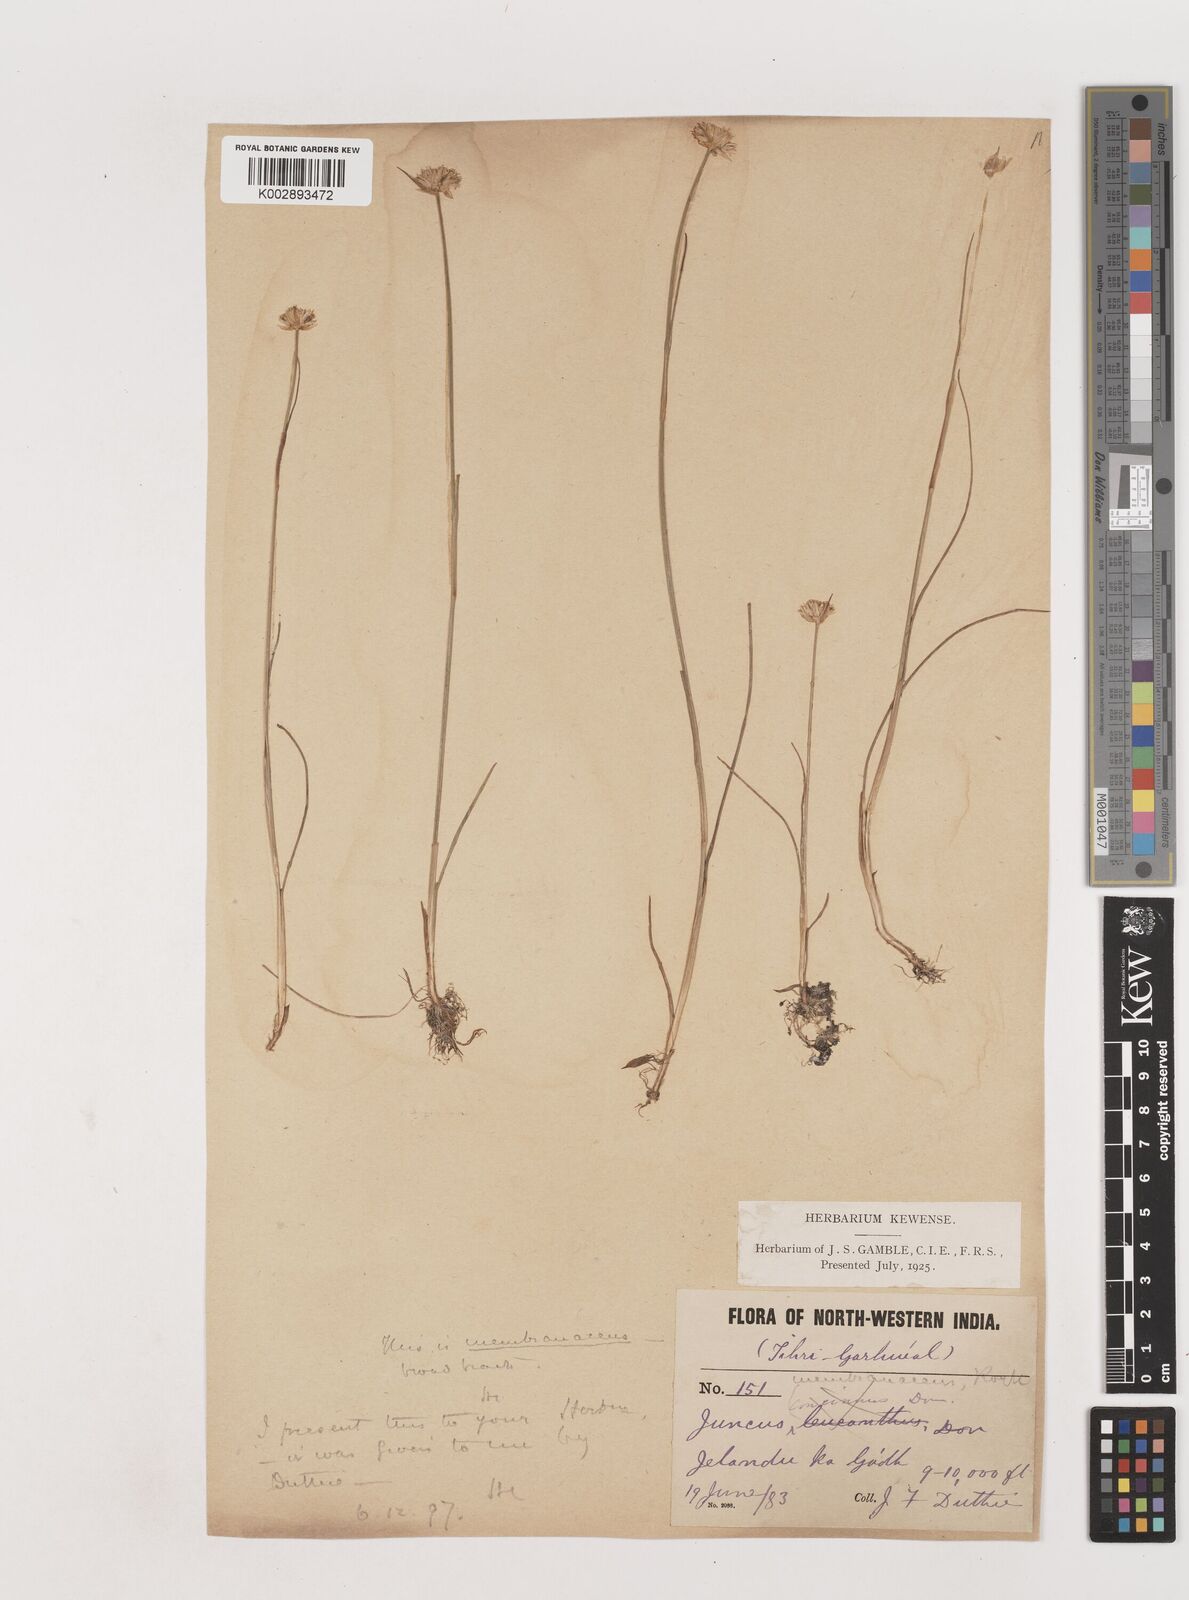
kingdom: Plantae
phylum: Tracheophyta
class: Liliopsida
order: Poales
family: Juncaceae
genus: Juncus
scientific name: Juncus membranaceus
